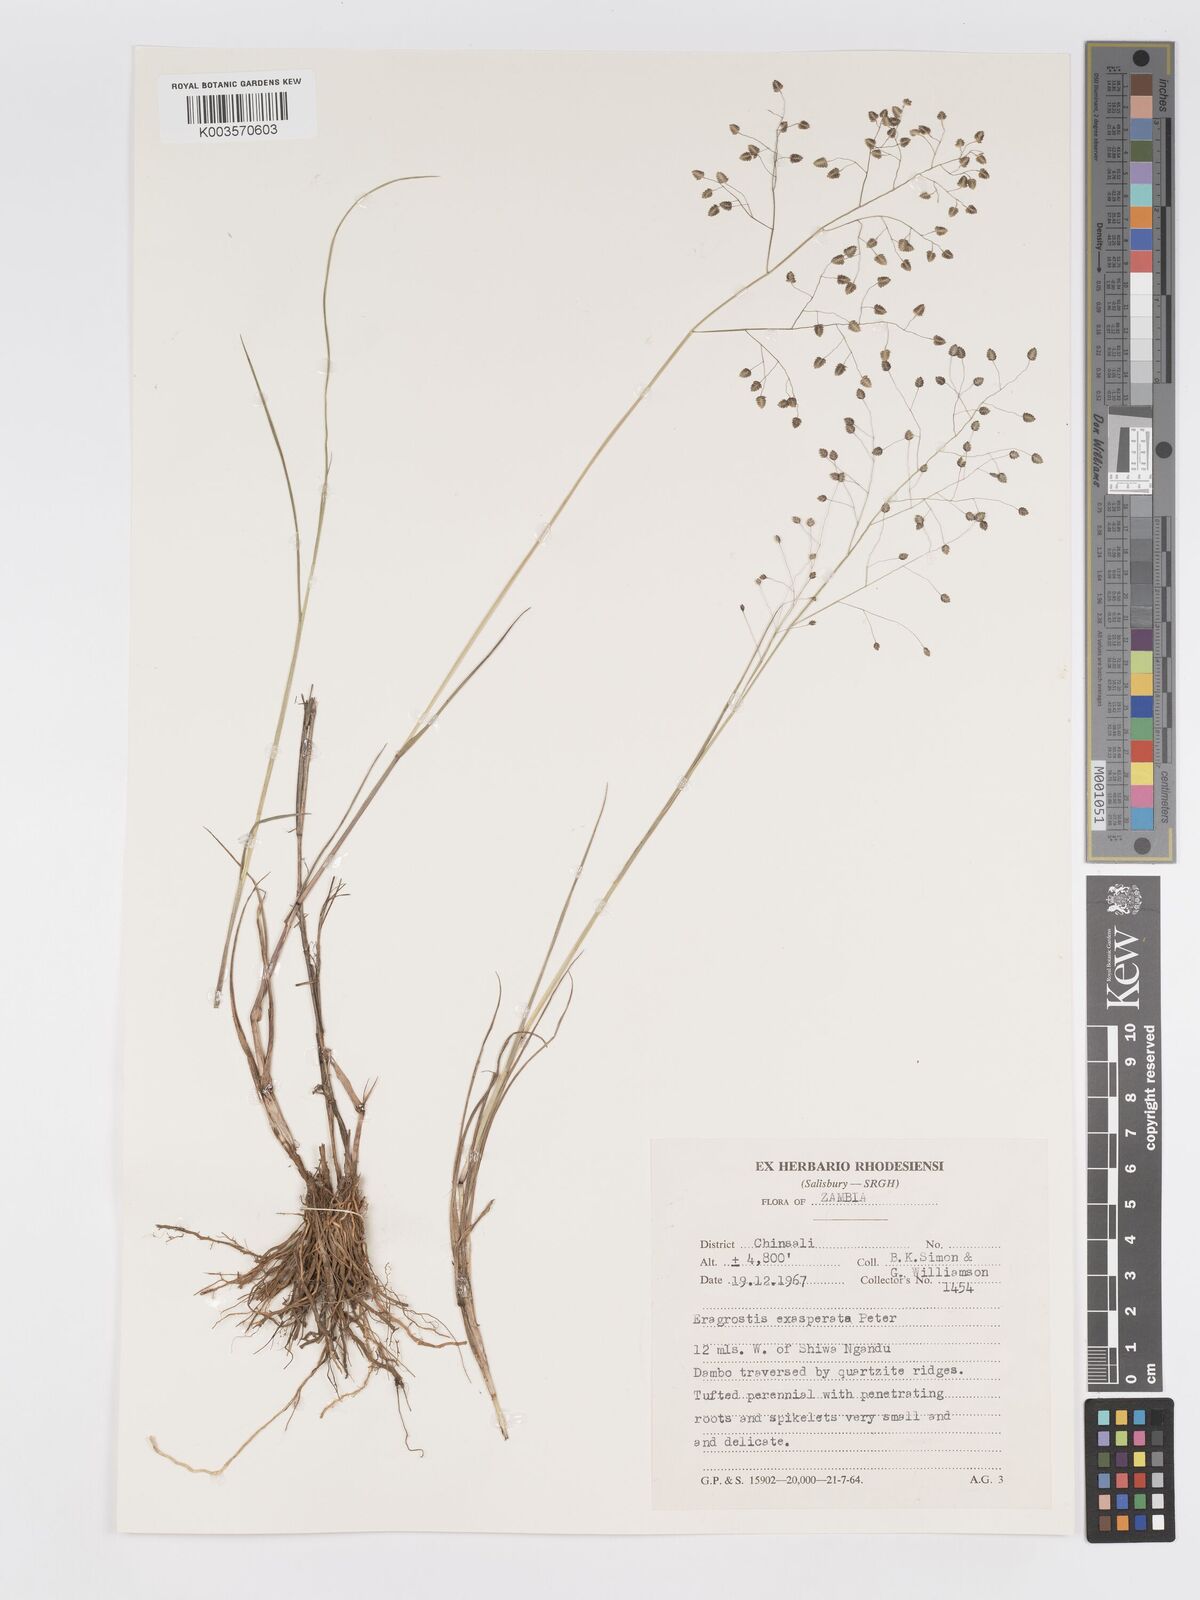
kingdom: Plantae
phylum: Tracheophyta
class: Liliopsida
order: Poales
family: Poaceae
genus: Eragrostis
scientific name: Eragrostis exasperata
